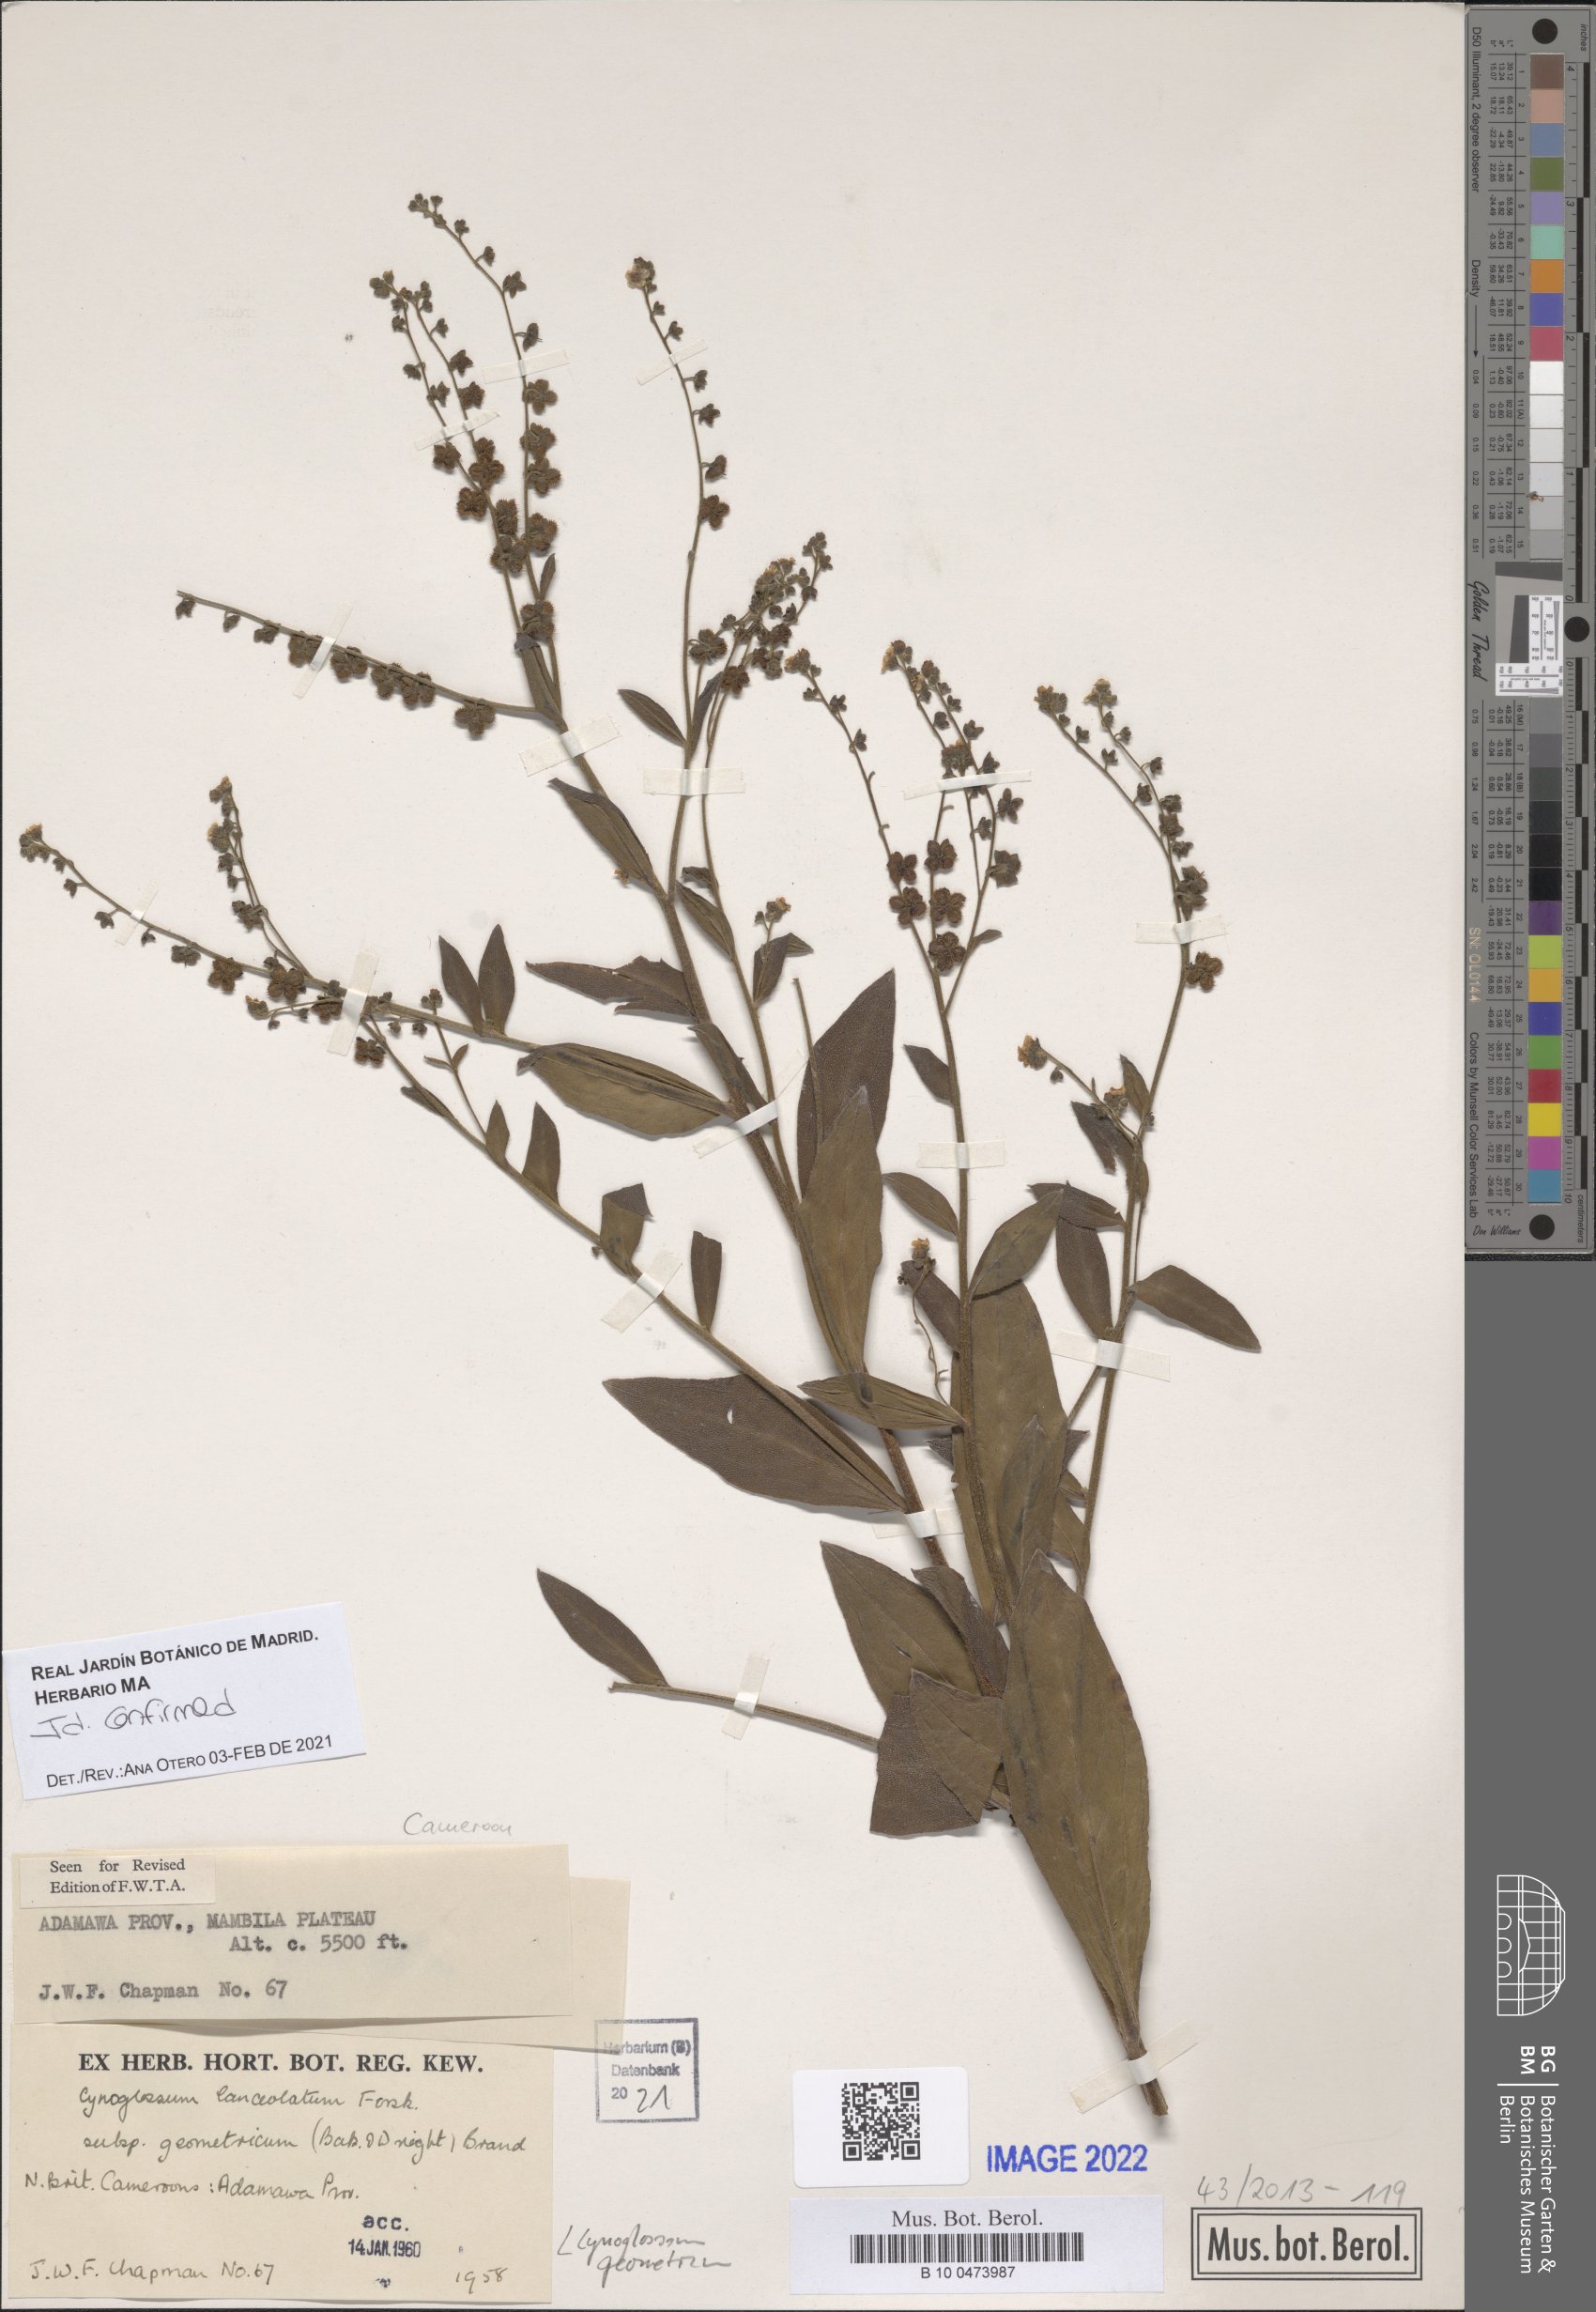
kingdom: Plantae
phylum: Tracheophyta
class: Magnoliopsida
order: Boraginales
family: Boraginaceae
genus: Paracynoglossum
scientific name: Paracynoglossum geometricum
